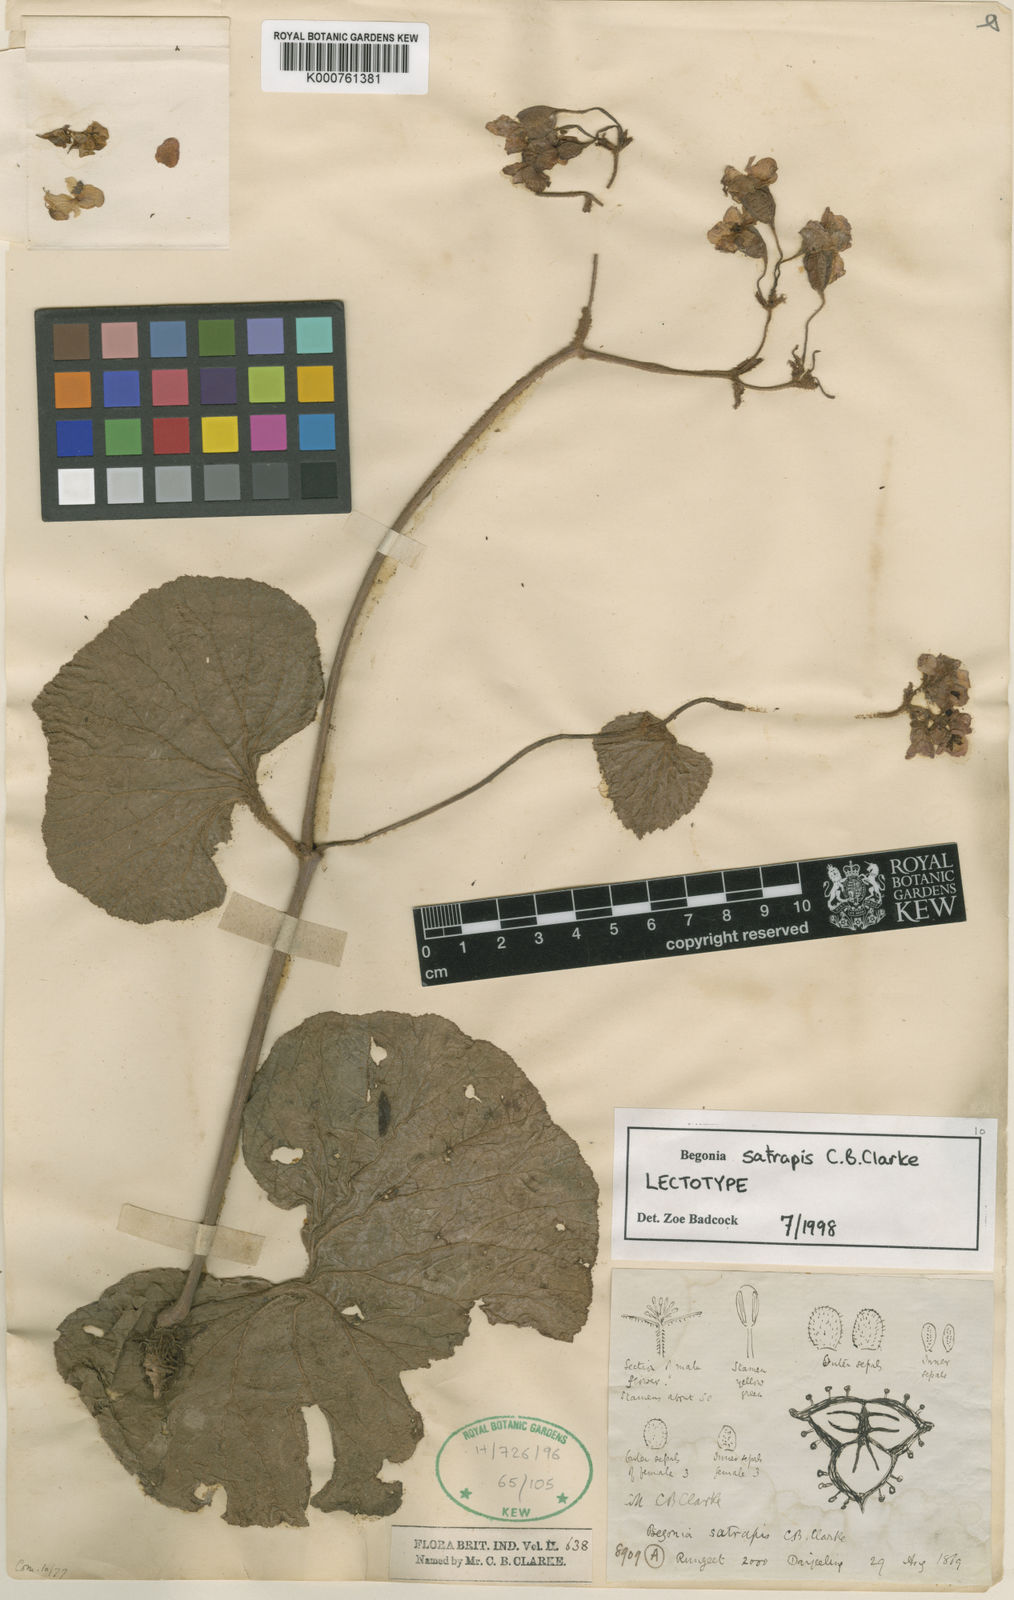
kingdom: Plantae
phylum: Tracheophyta
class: Magnoliopsida
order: Cucurbitales
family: Begoniaceae
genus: Begonia
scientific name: Begonia satrapis
